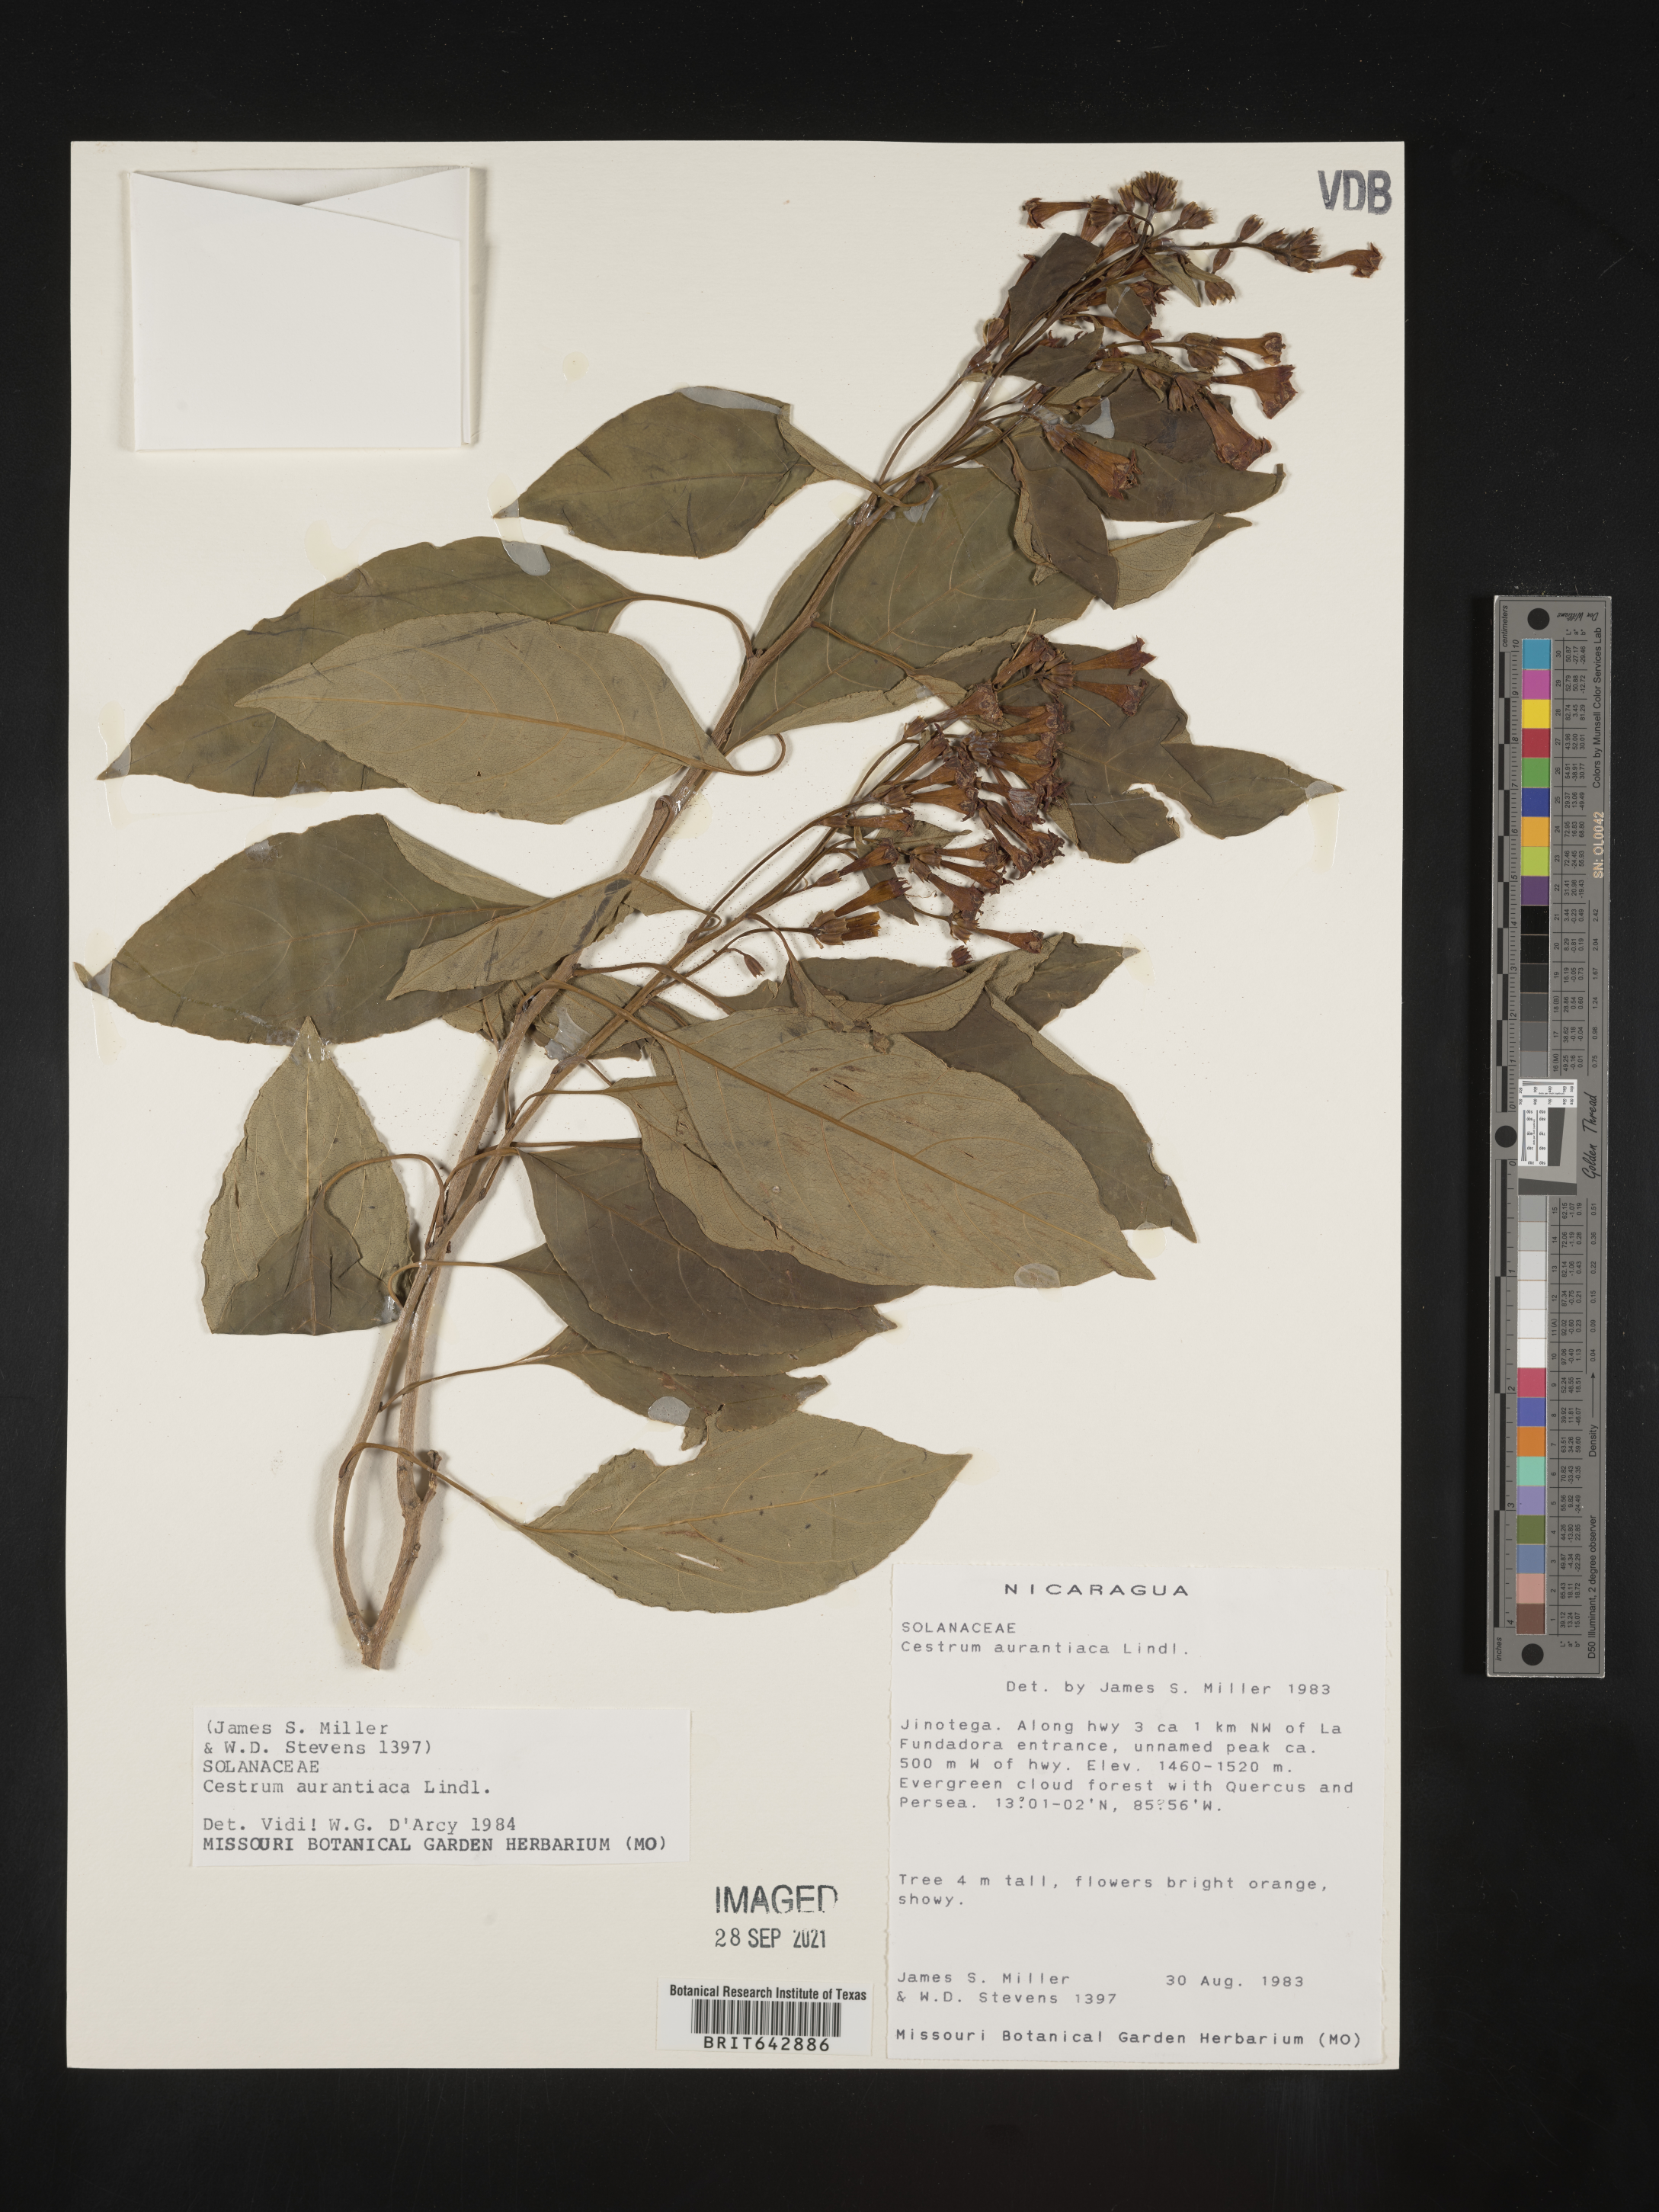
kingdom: Plantae
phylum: Tracheophyta
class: Magnoliopsida
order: Solanales
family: Solanaceae
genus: Cestrum
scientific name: Cestrum
